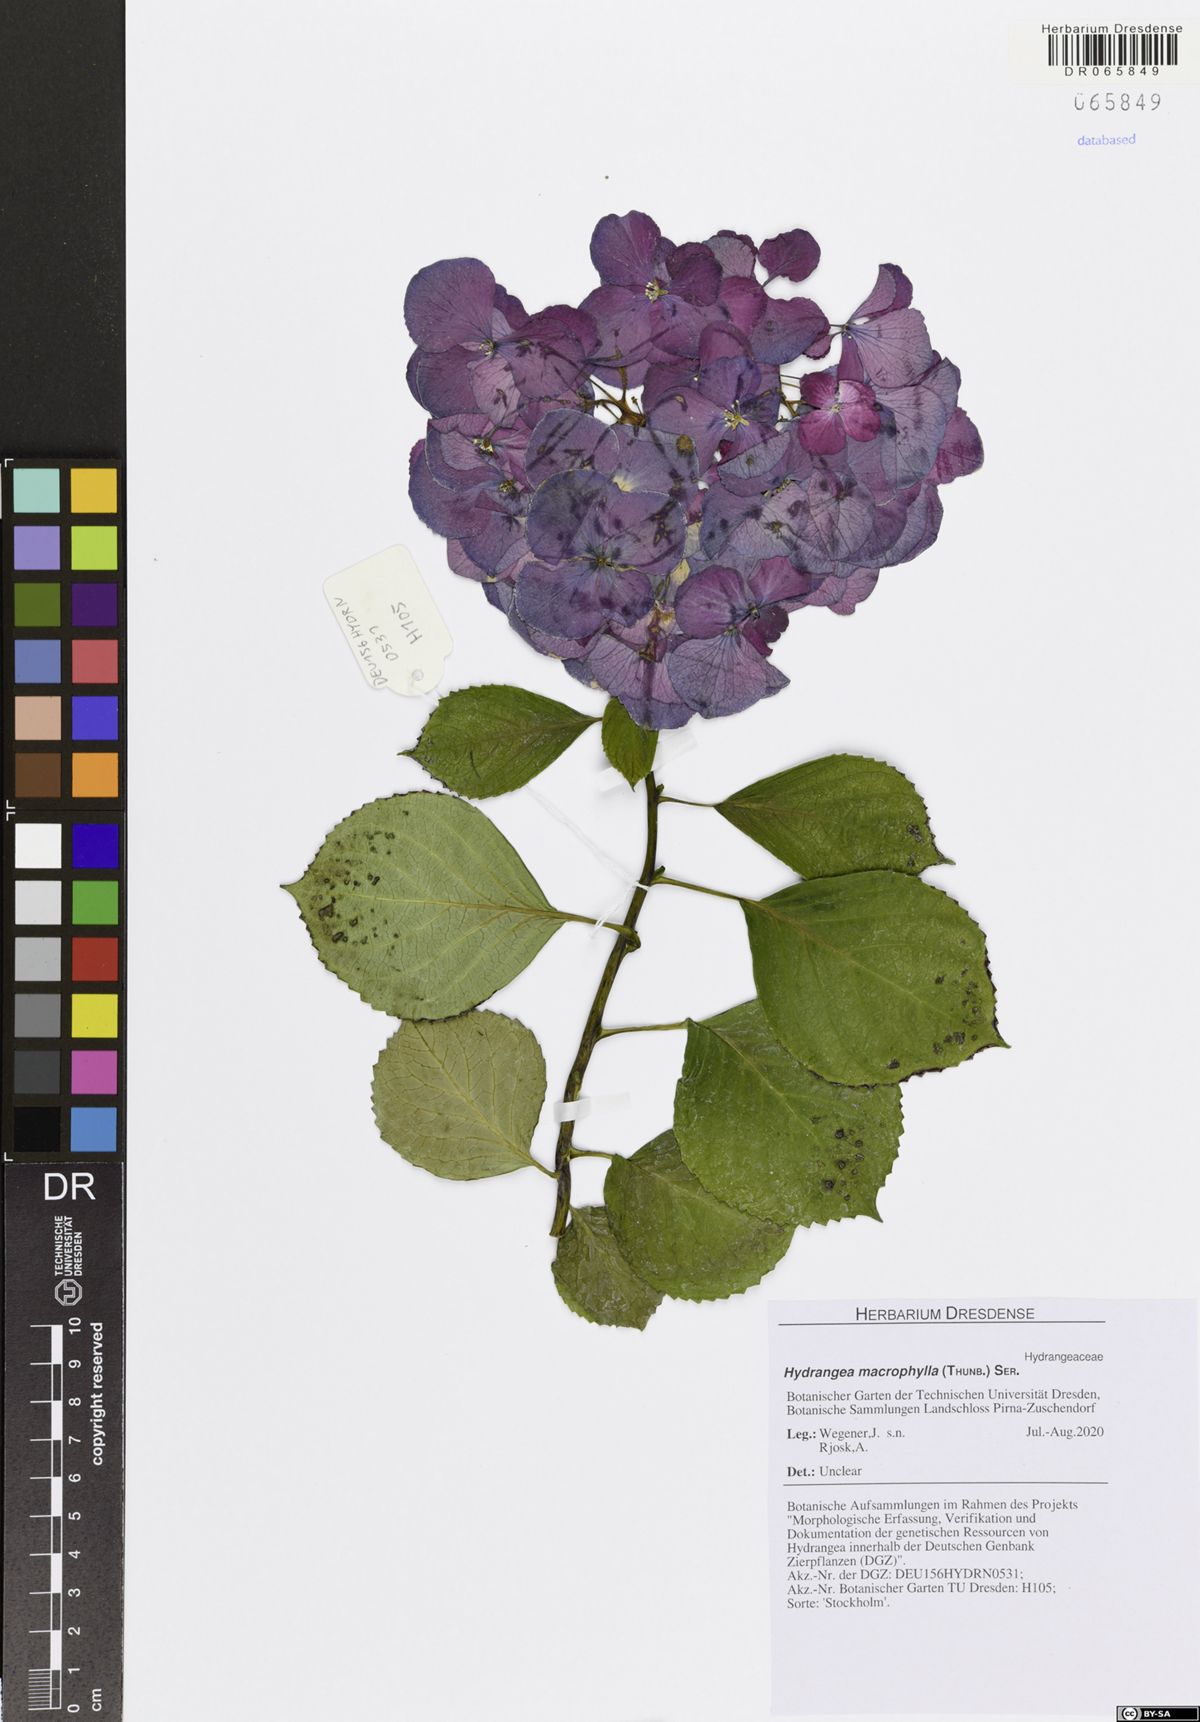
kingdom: Plantae
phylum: Tracheophyta
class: Magnoliopsida
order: Cornales
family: Hydrangeaceae
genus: Hydrangea
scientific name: Hydrangea macrophylla
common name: Hydrangea
